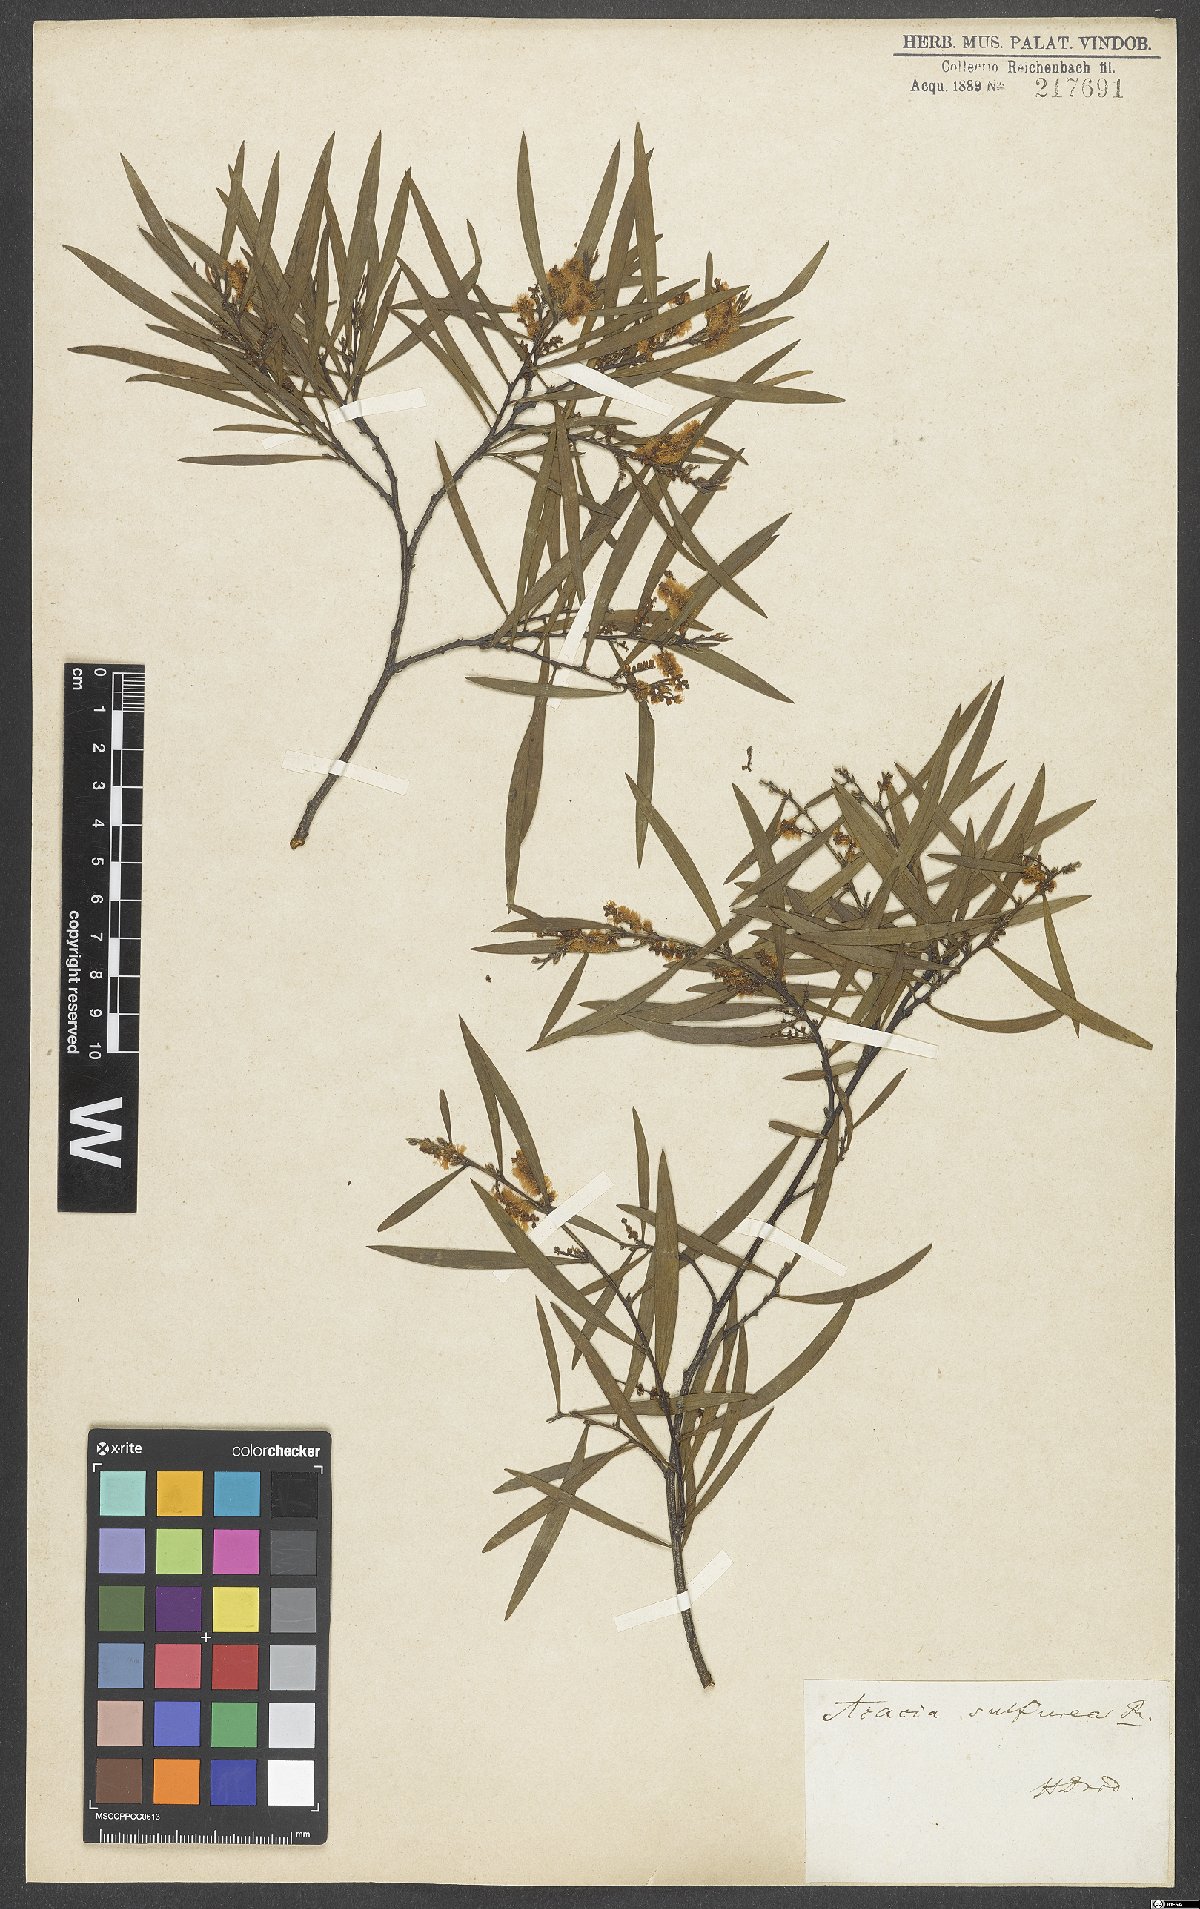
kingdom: Plantae
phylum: Tracheophyta
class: Magnoliopsida
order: Fabales
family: Fabaceae
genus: Acacia
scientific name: Acacia
